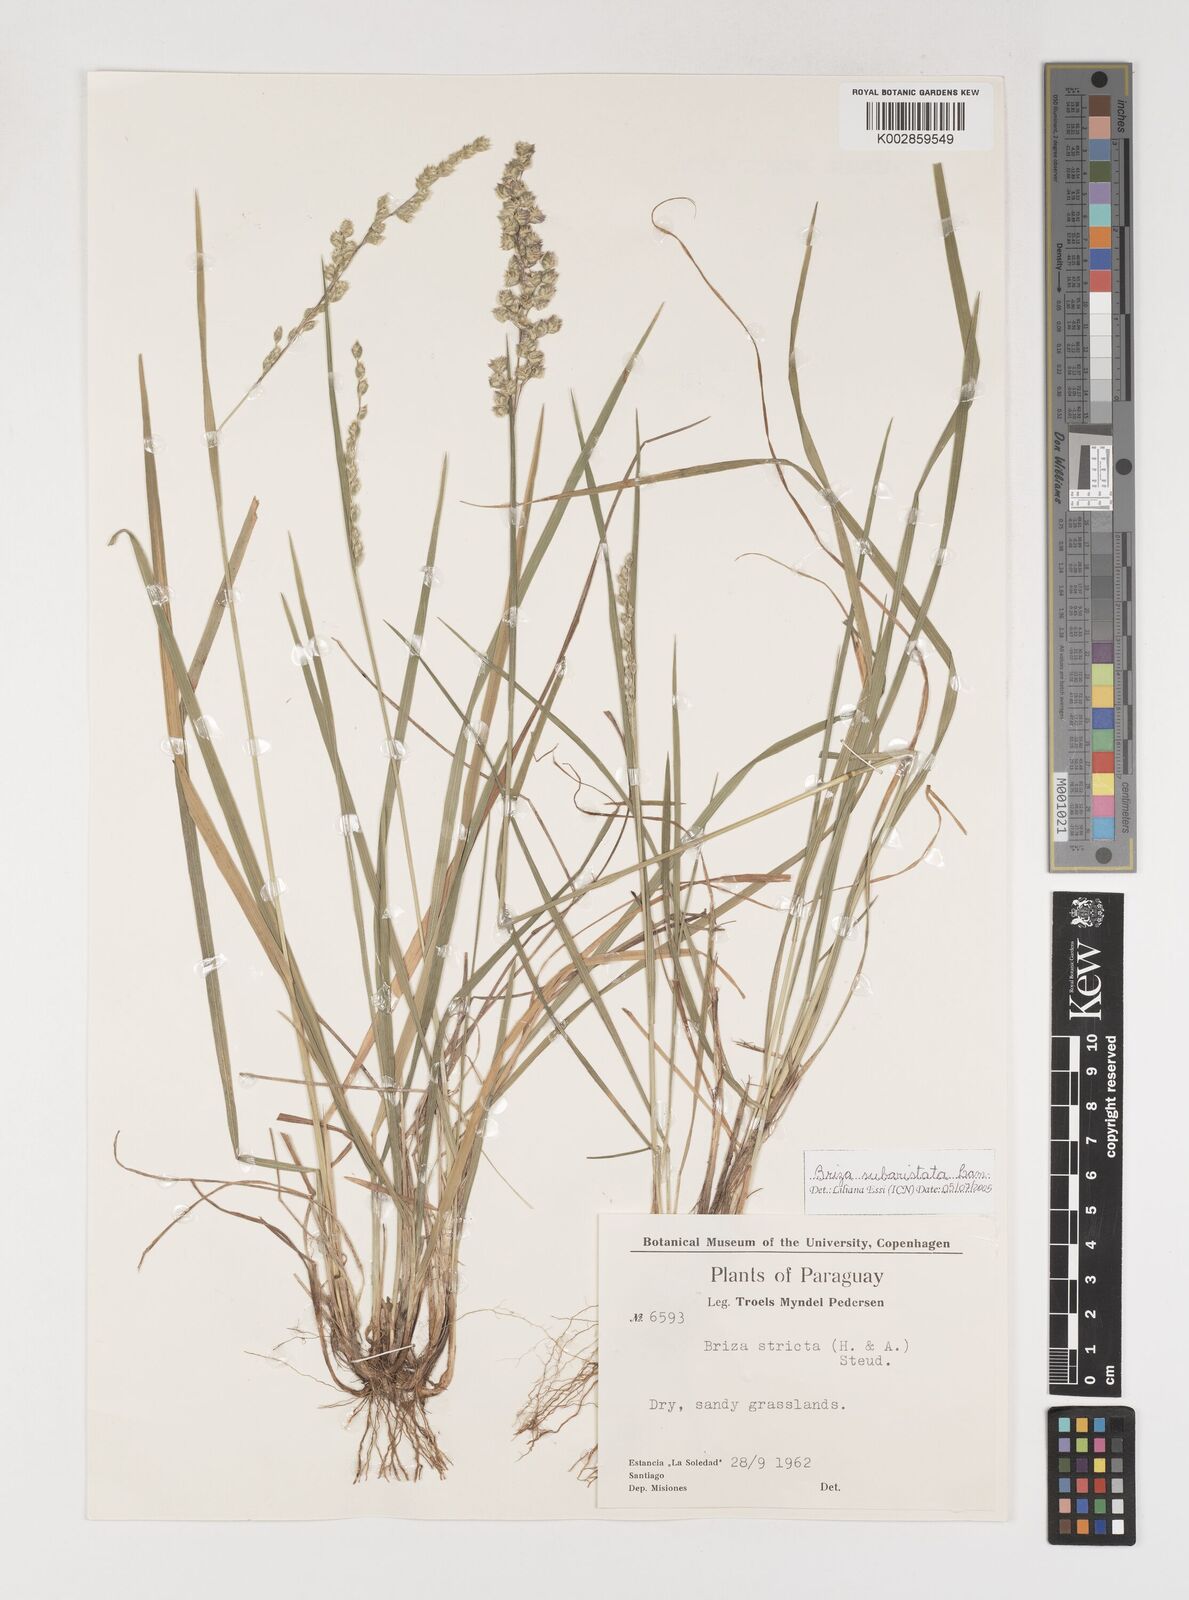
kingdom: Plantae
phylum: Tracheophyta
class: Liliopsida
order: Poales
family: Poaceae
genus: Chascolytrum
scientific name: Chascolytrum subaristatum
